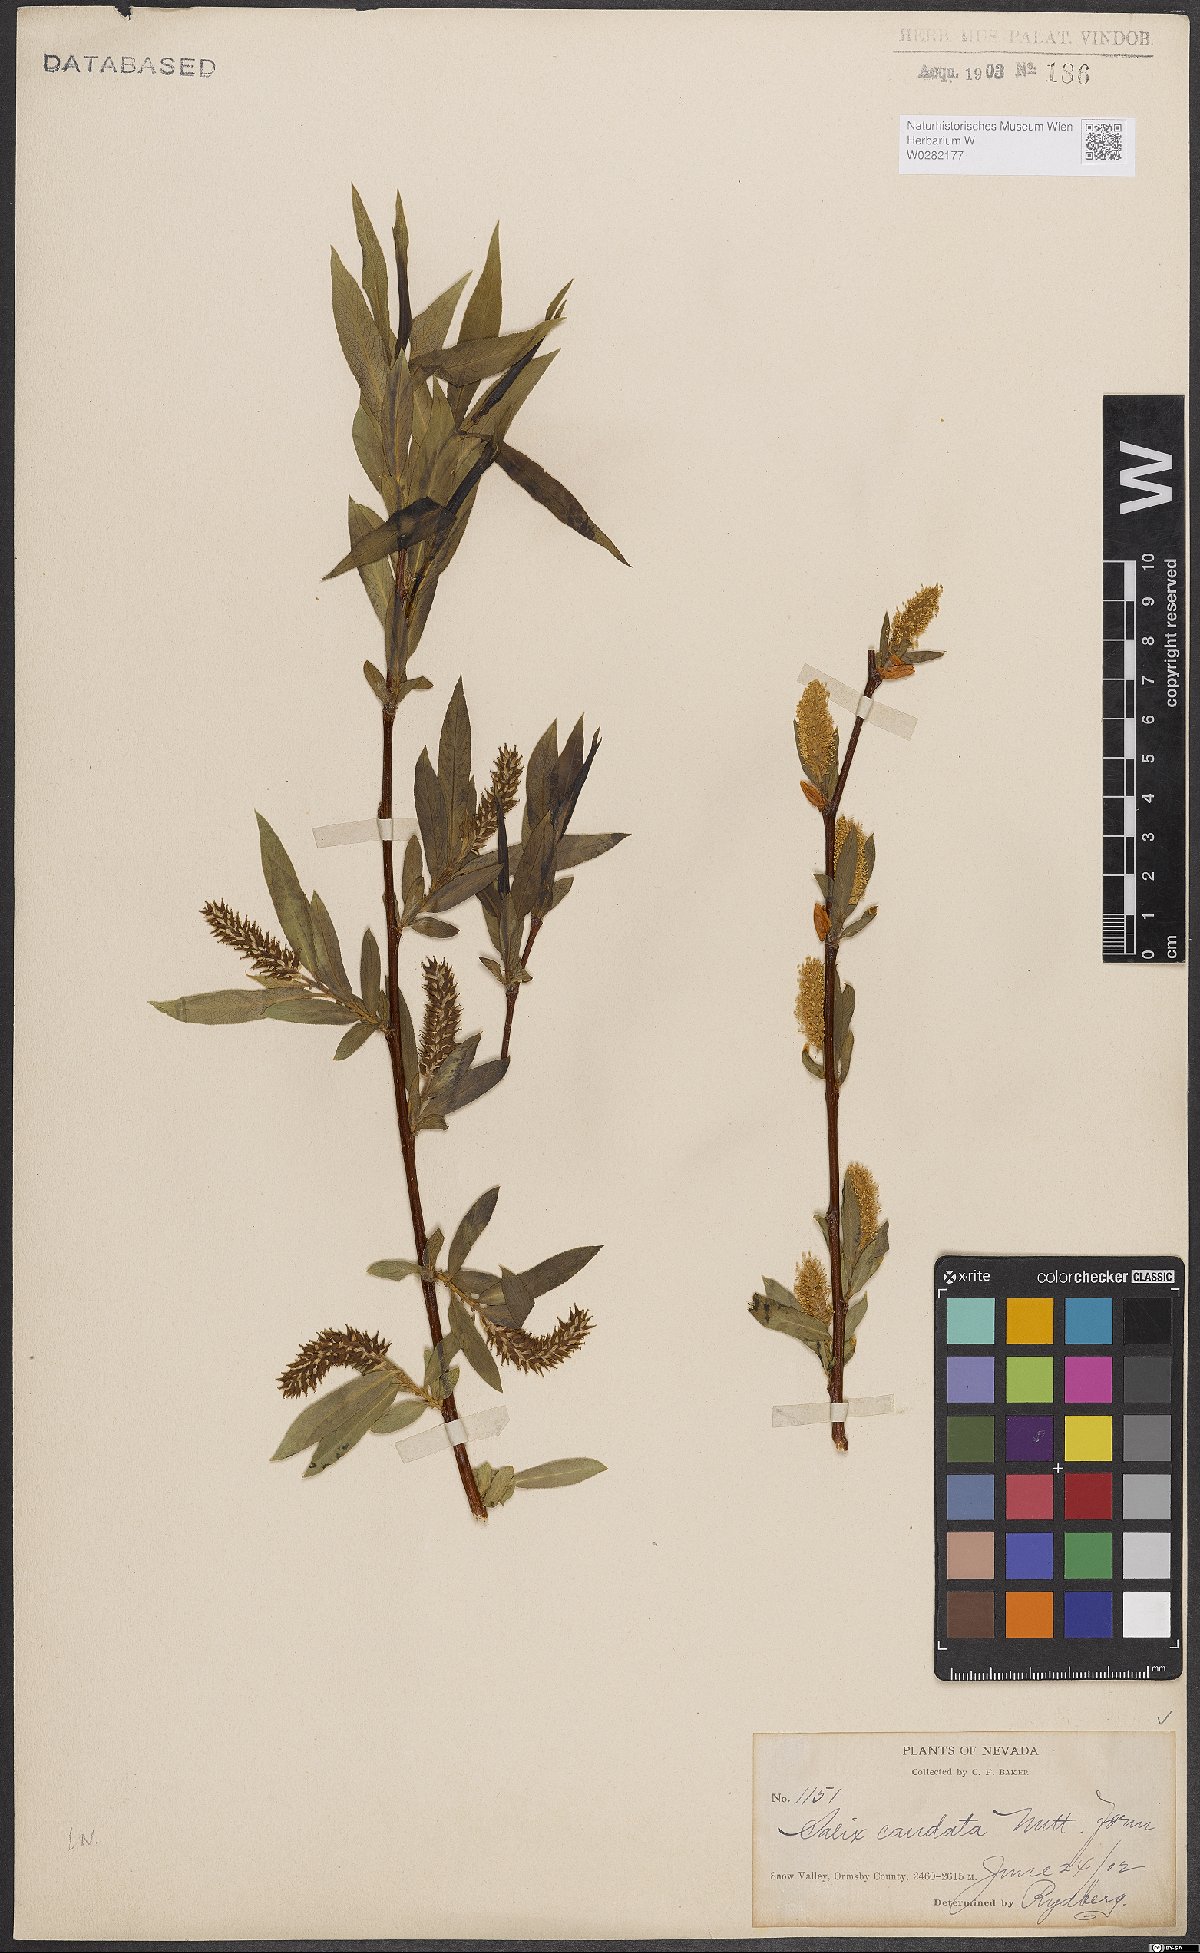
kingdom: Plantae
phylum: Tracheophyta
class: Magnoliopsida
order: Malpighiales
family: Salicaceae
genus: Salix
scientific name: Salix lucida
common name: Shining willow
